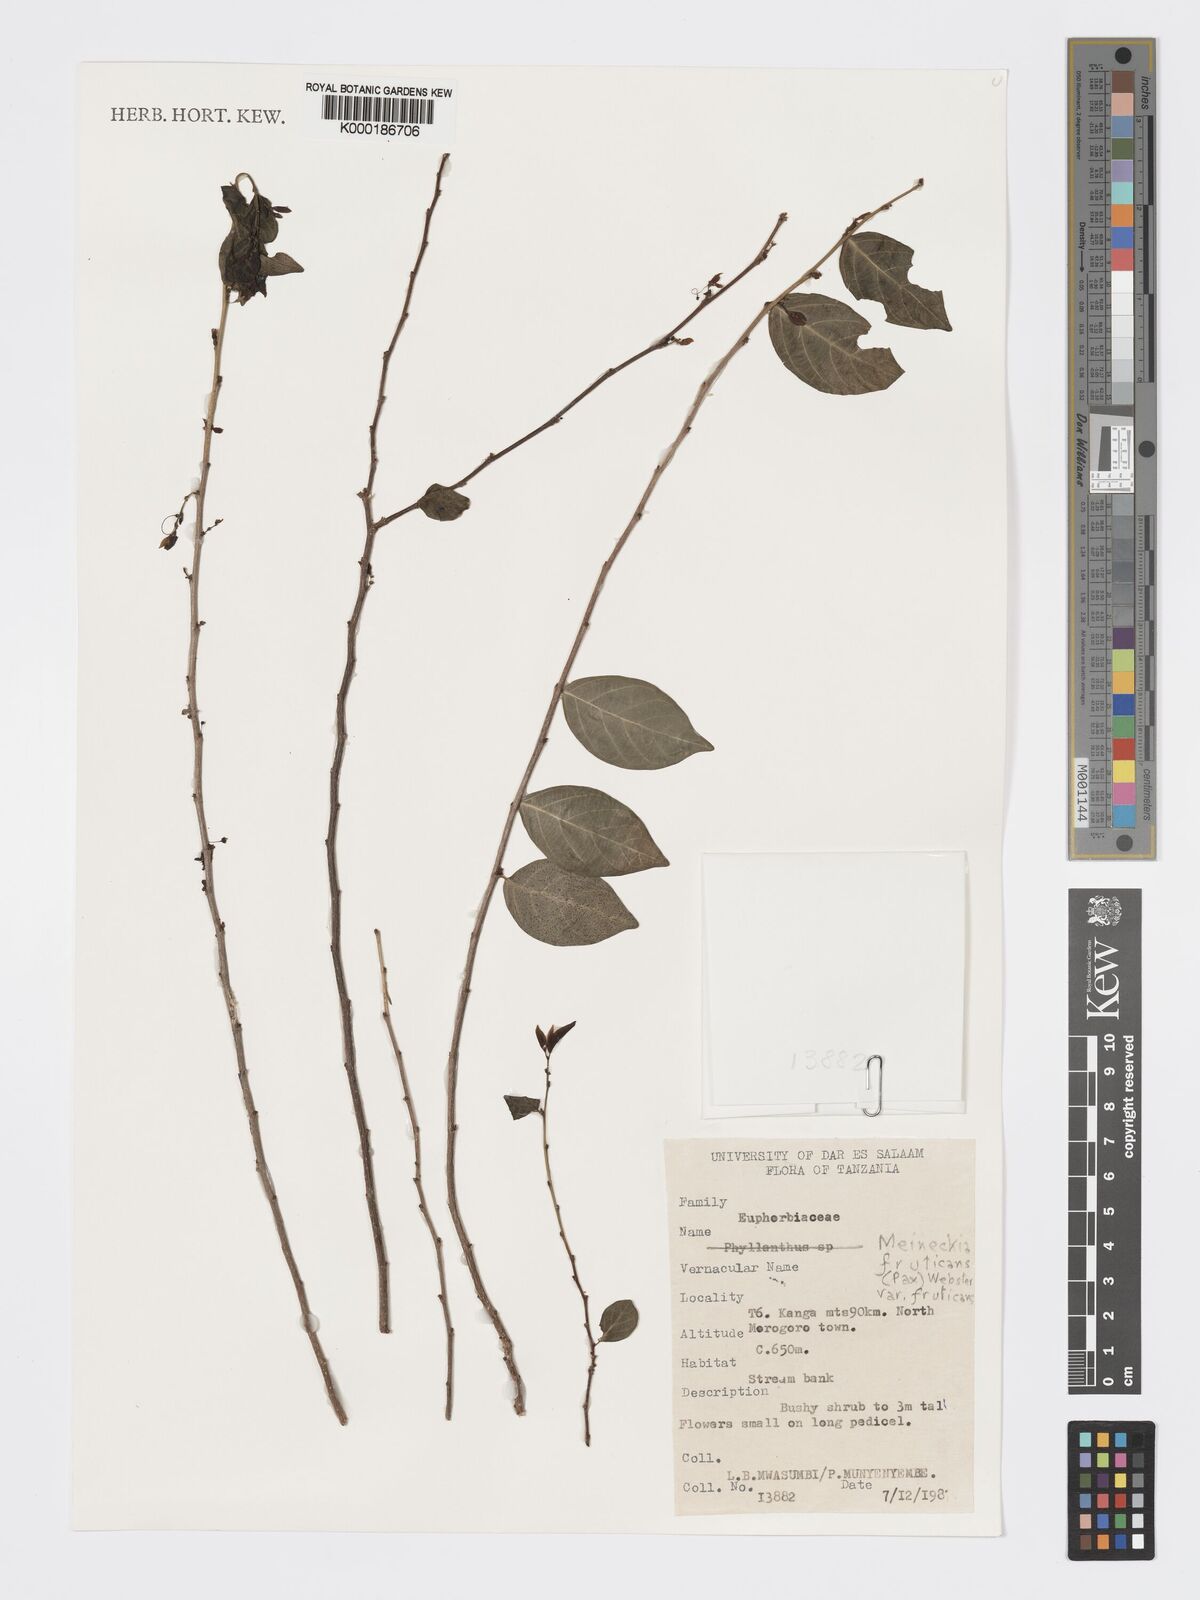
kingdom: Plantae
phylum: Tracheophyta
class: Magnoliopsida
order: Malpighiales
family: Phyllanthaceae
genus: Meineckia
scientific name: Meineckia fruticans
